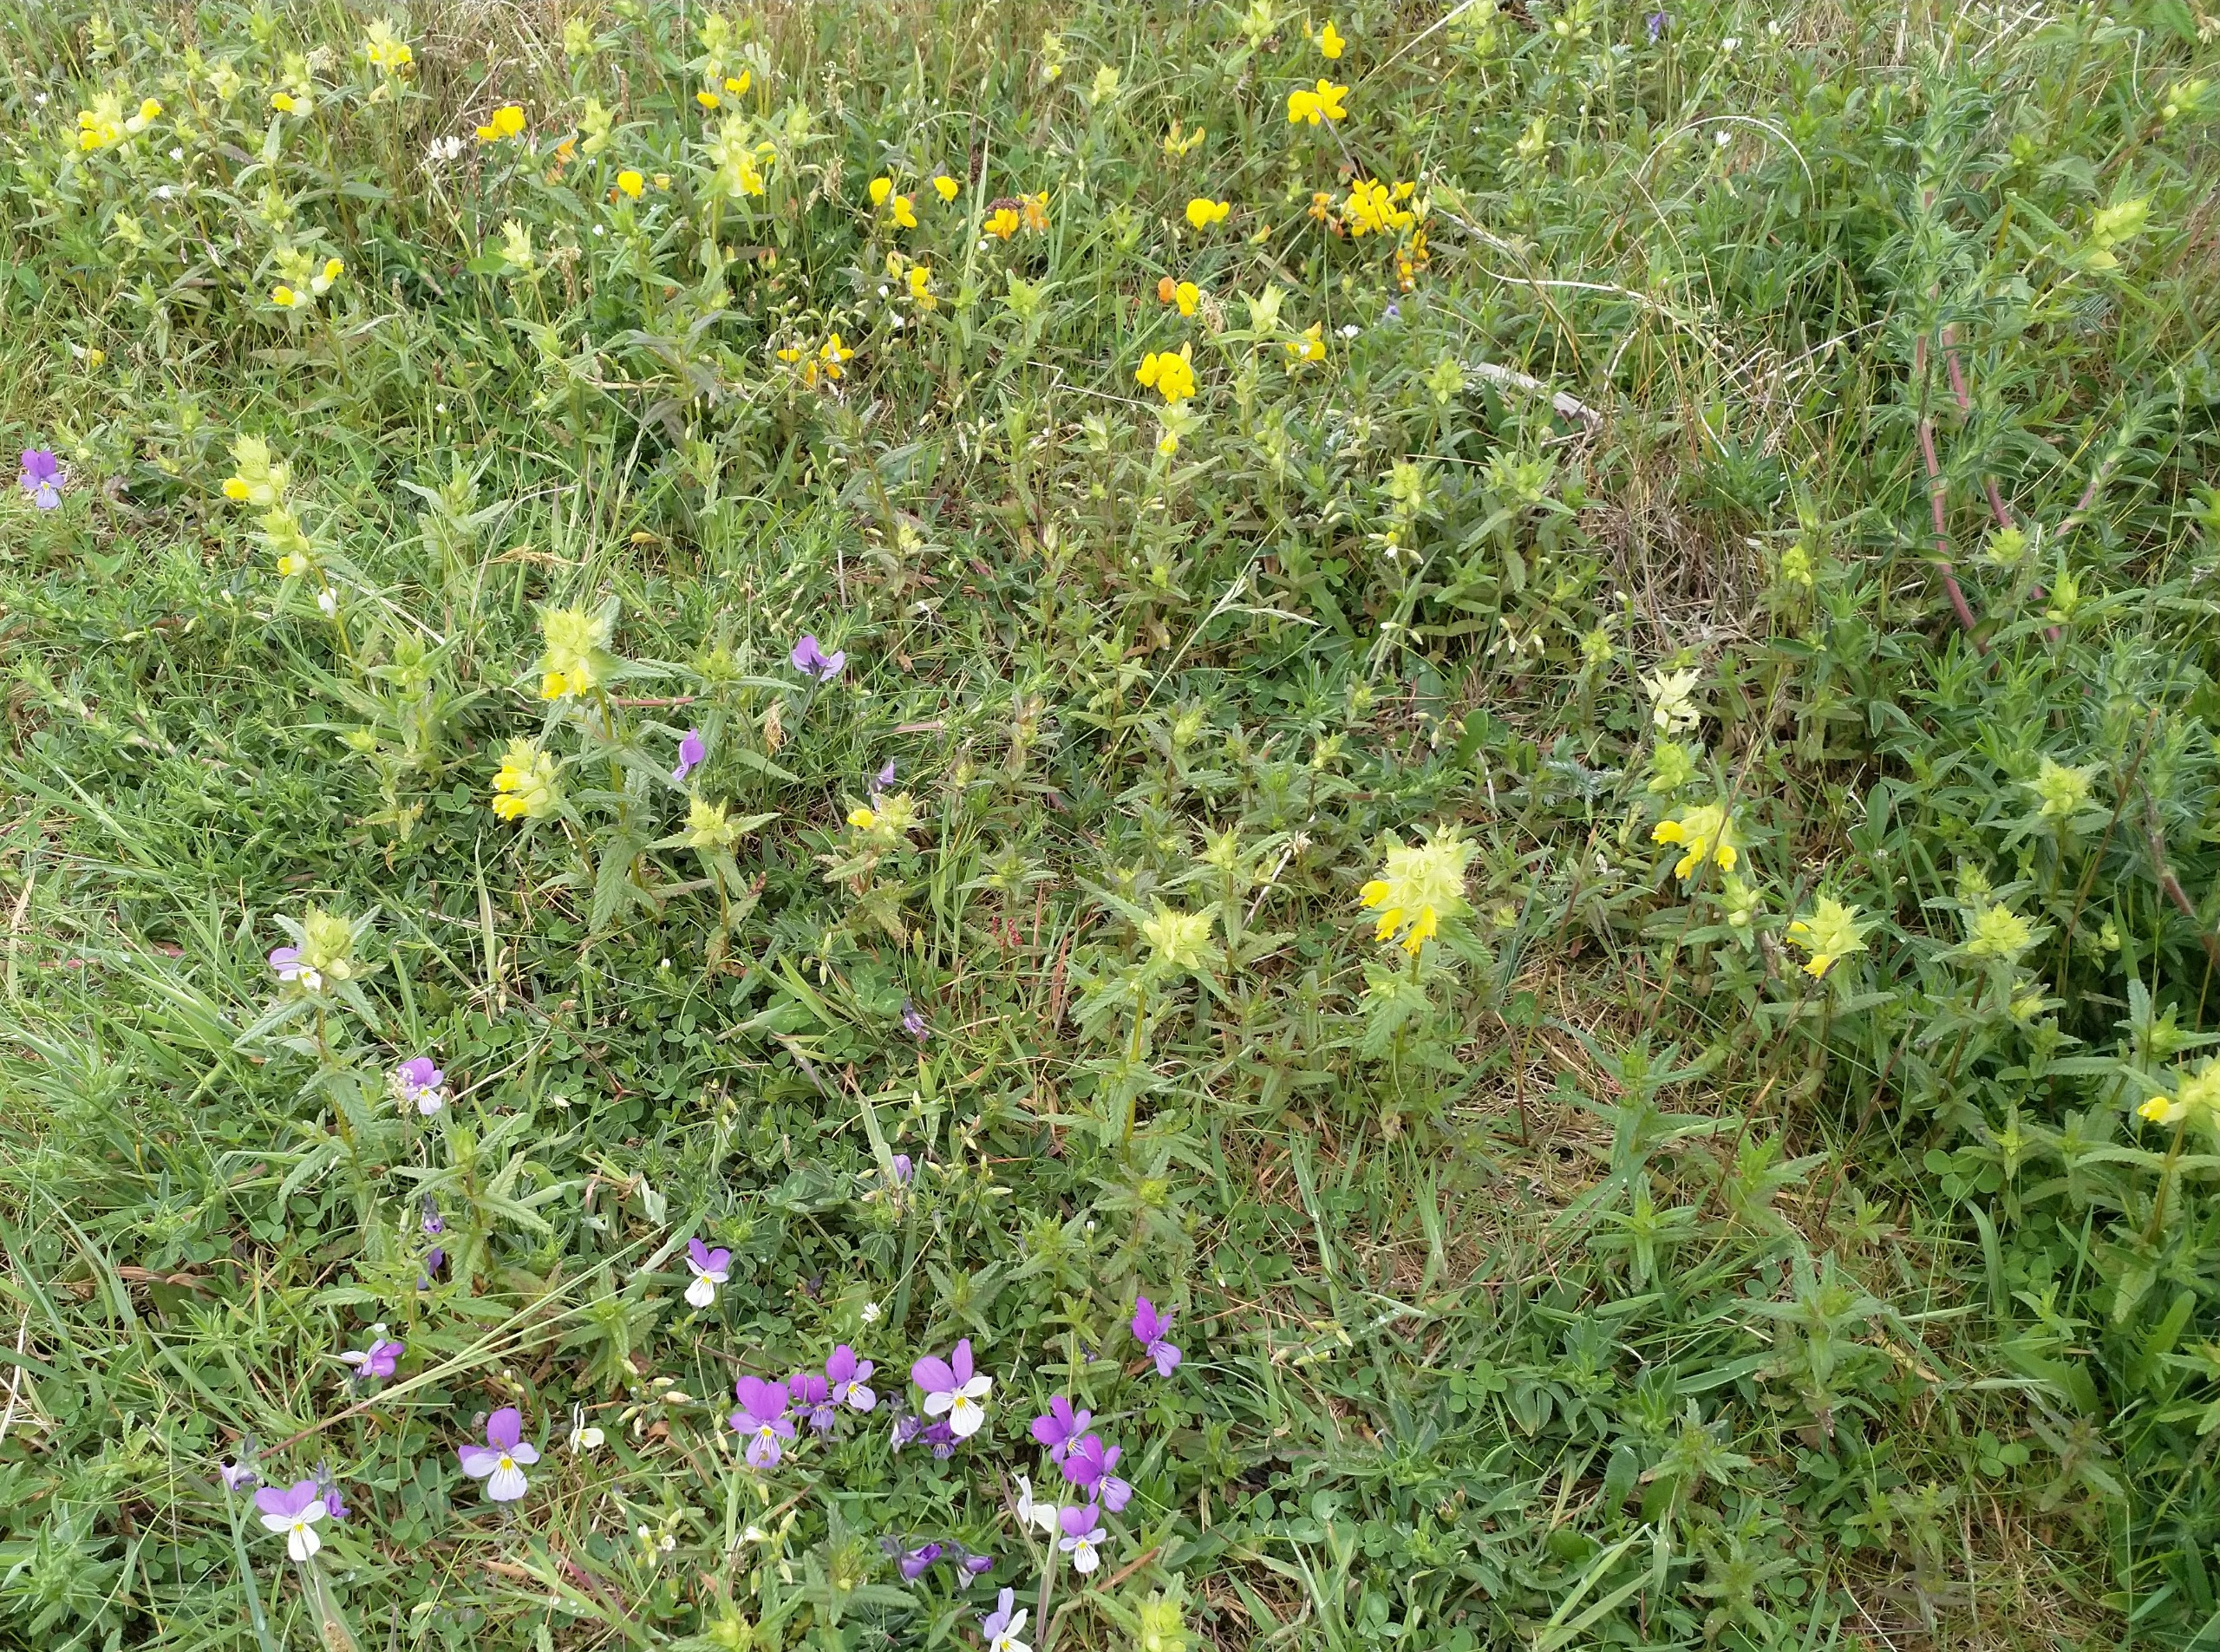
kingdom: Plantae
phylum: Tracheophyta
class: Magnoliopsida
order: Lamiales
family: Orobanchaceae
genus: Rhinanthus
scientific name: Rhinanthus
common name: Stor skjaller
